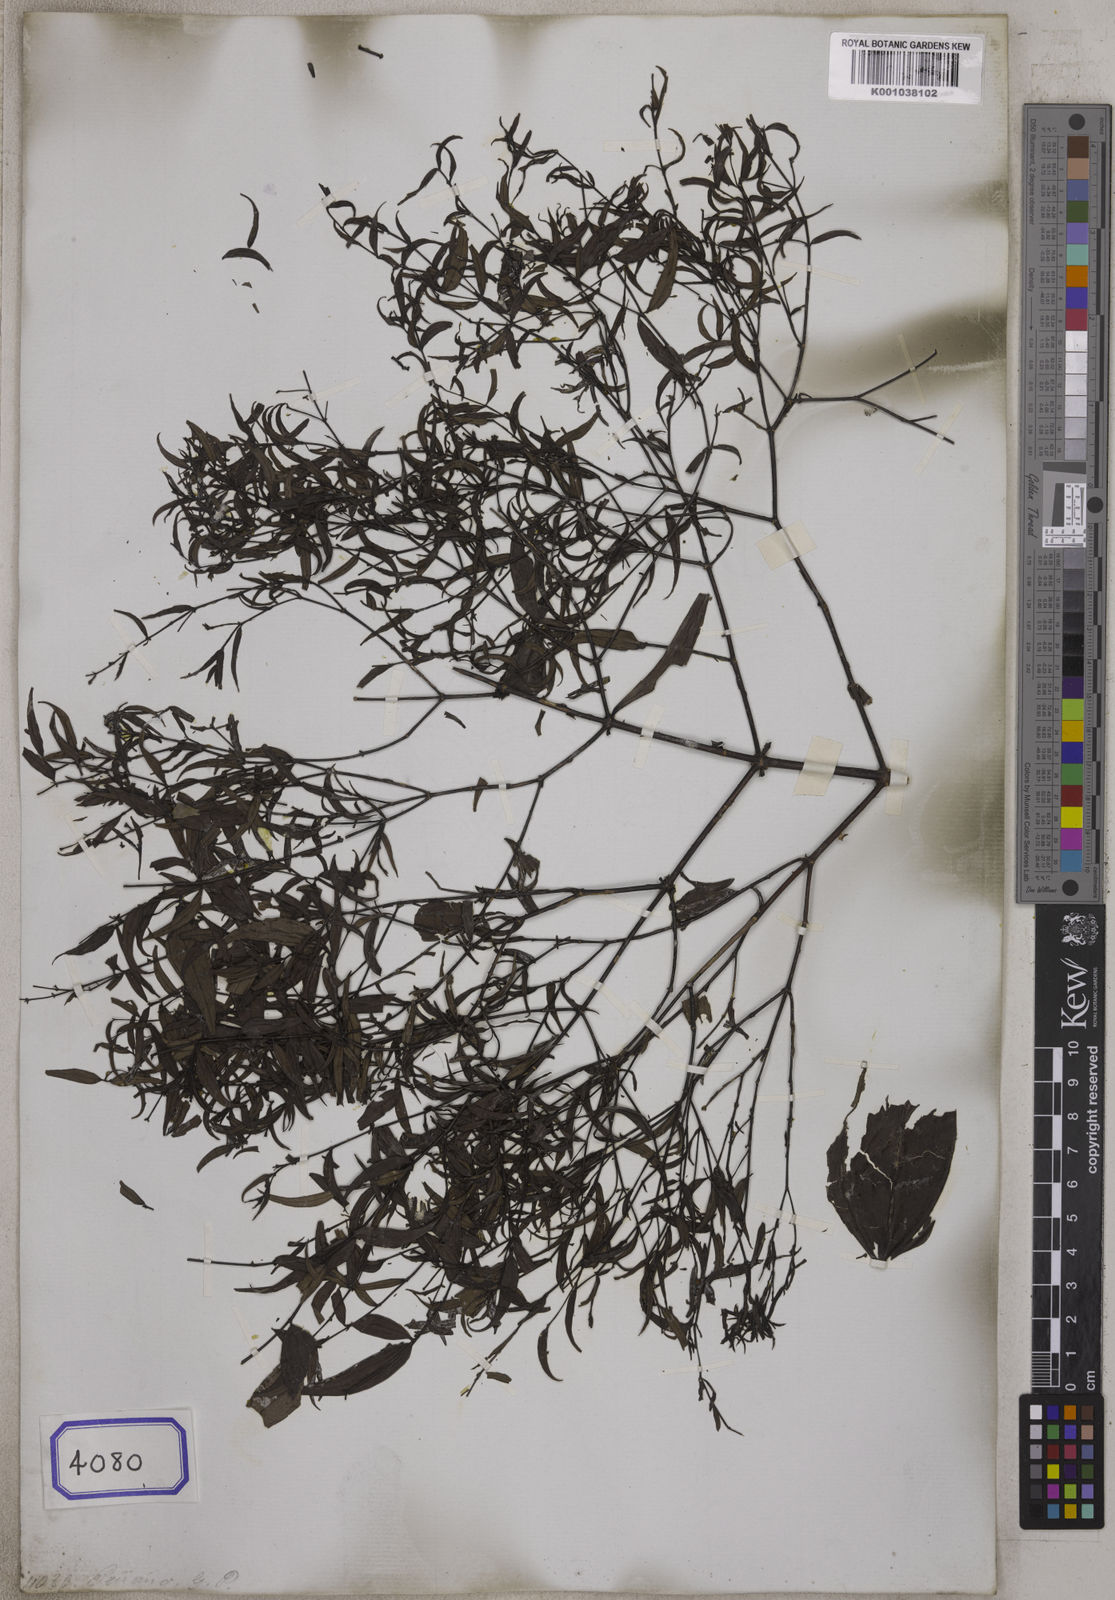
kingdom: Plantae
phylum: Tracheophyta
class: Magnoliopsida
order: Myrtales
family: Melastomataceae
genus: Pternandra
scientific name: Pternandra paniculata
